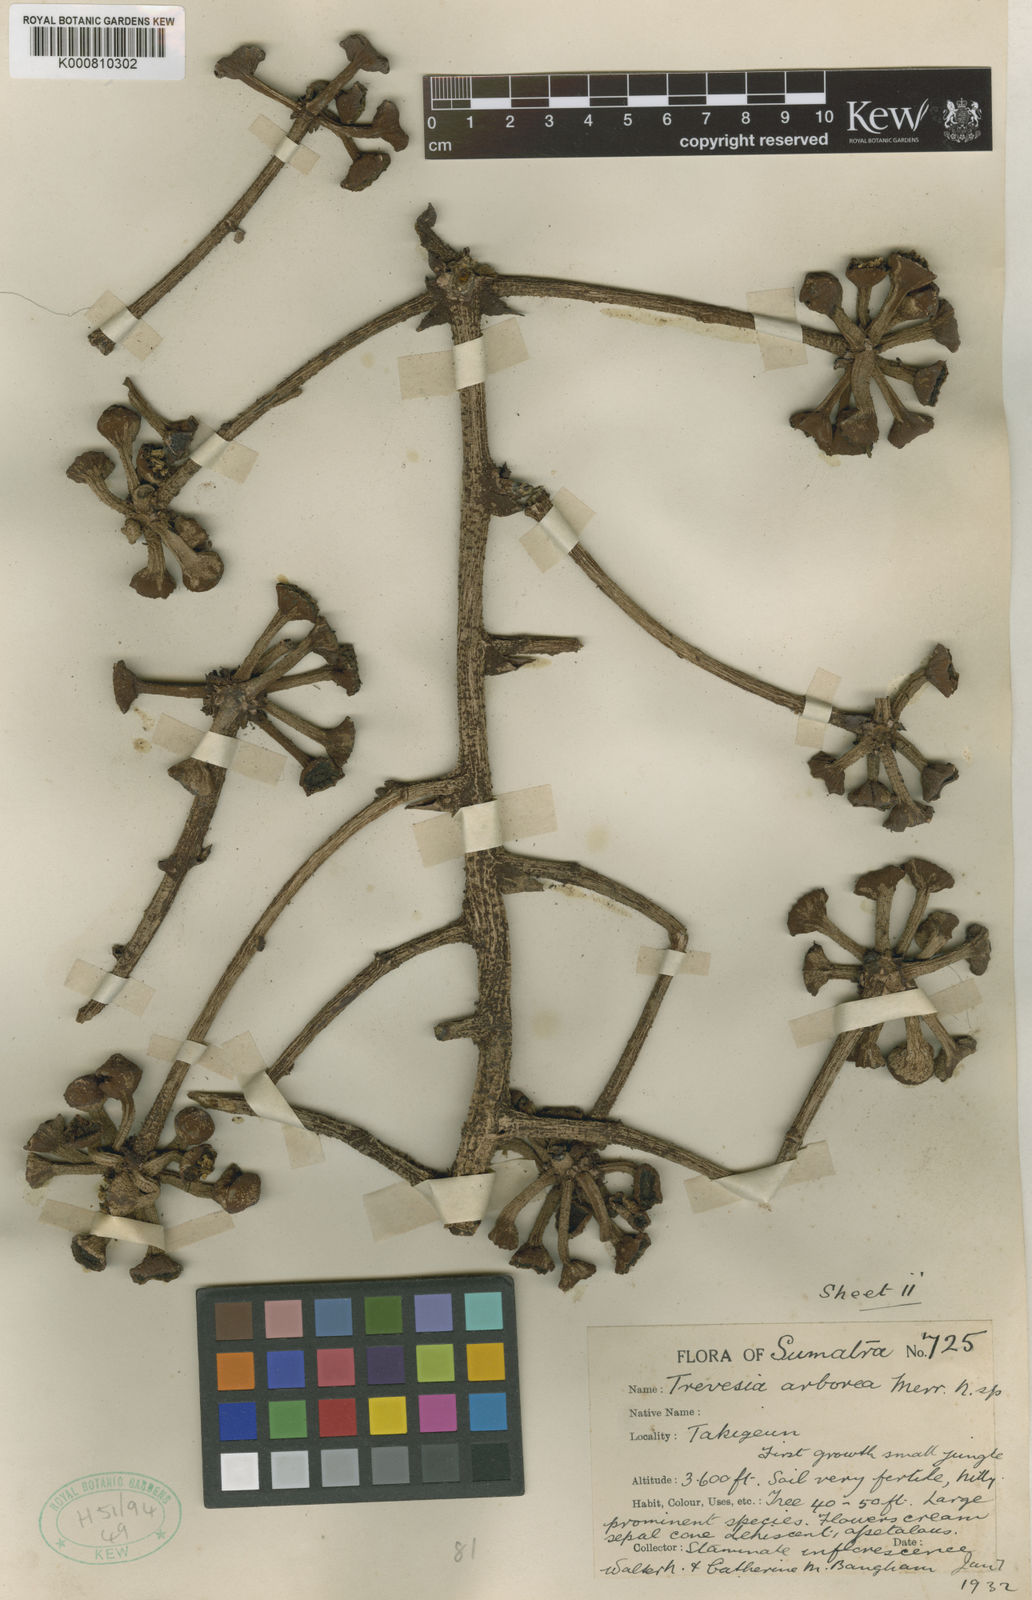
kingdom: Plantae
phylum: Tracheophyta
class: Magnoliopsida
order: Apiales
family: Araliaceae
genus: Trevesia
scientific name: Trevesia arborea
